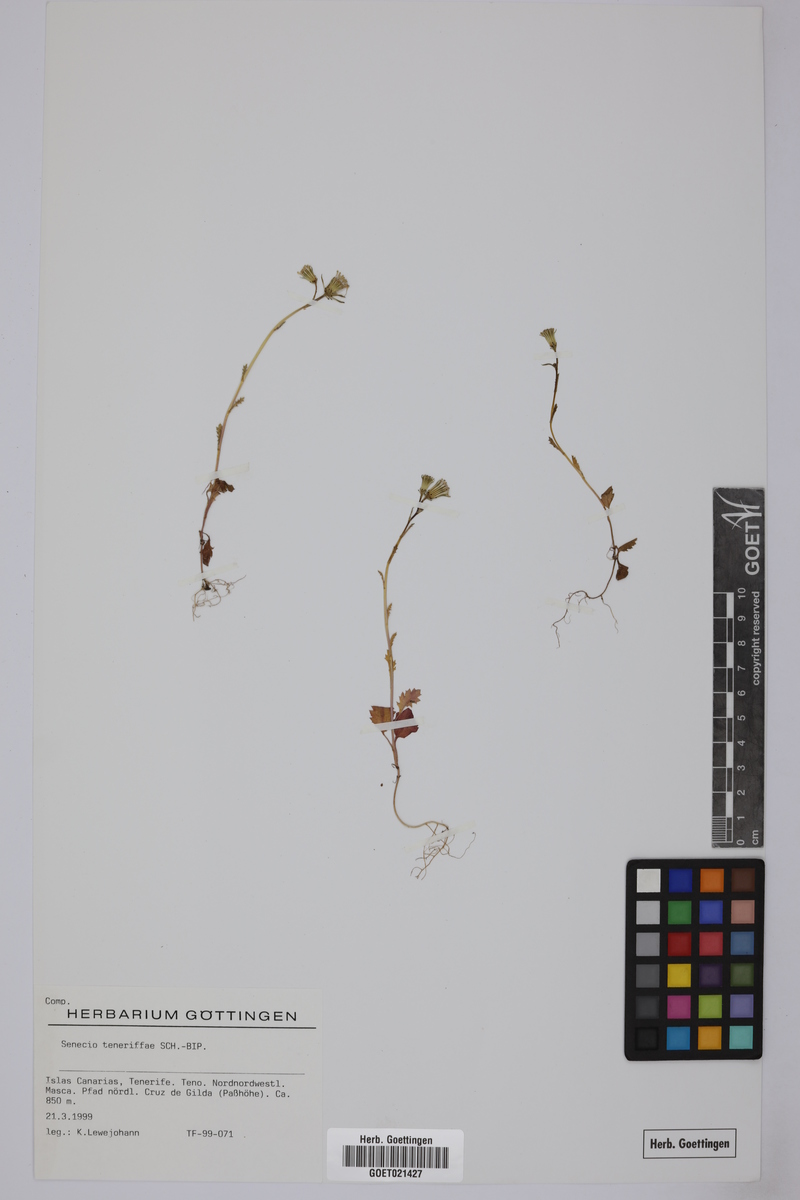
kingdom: Plantae
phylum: Tracheophyta
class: Magnoliopsida
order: Asterales
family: Asteraceae
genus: Senecio
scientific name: Senecio teneriffae
